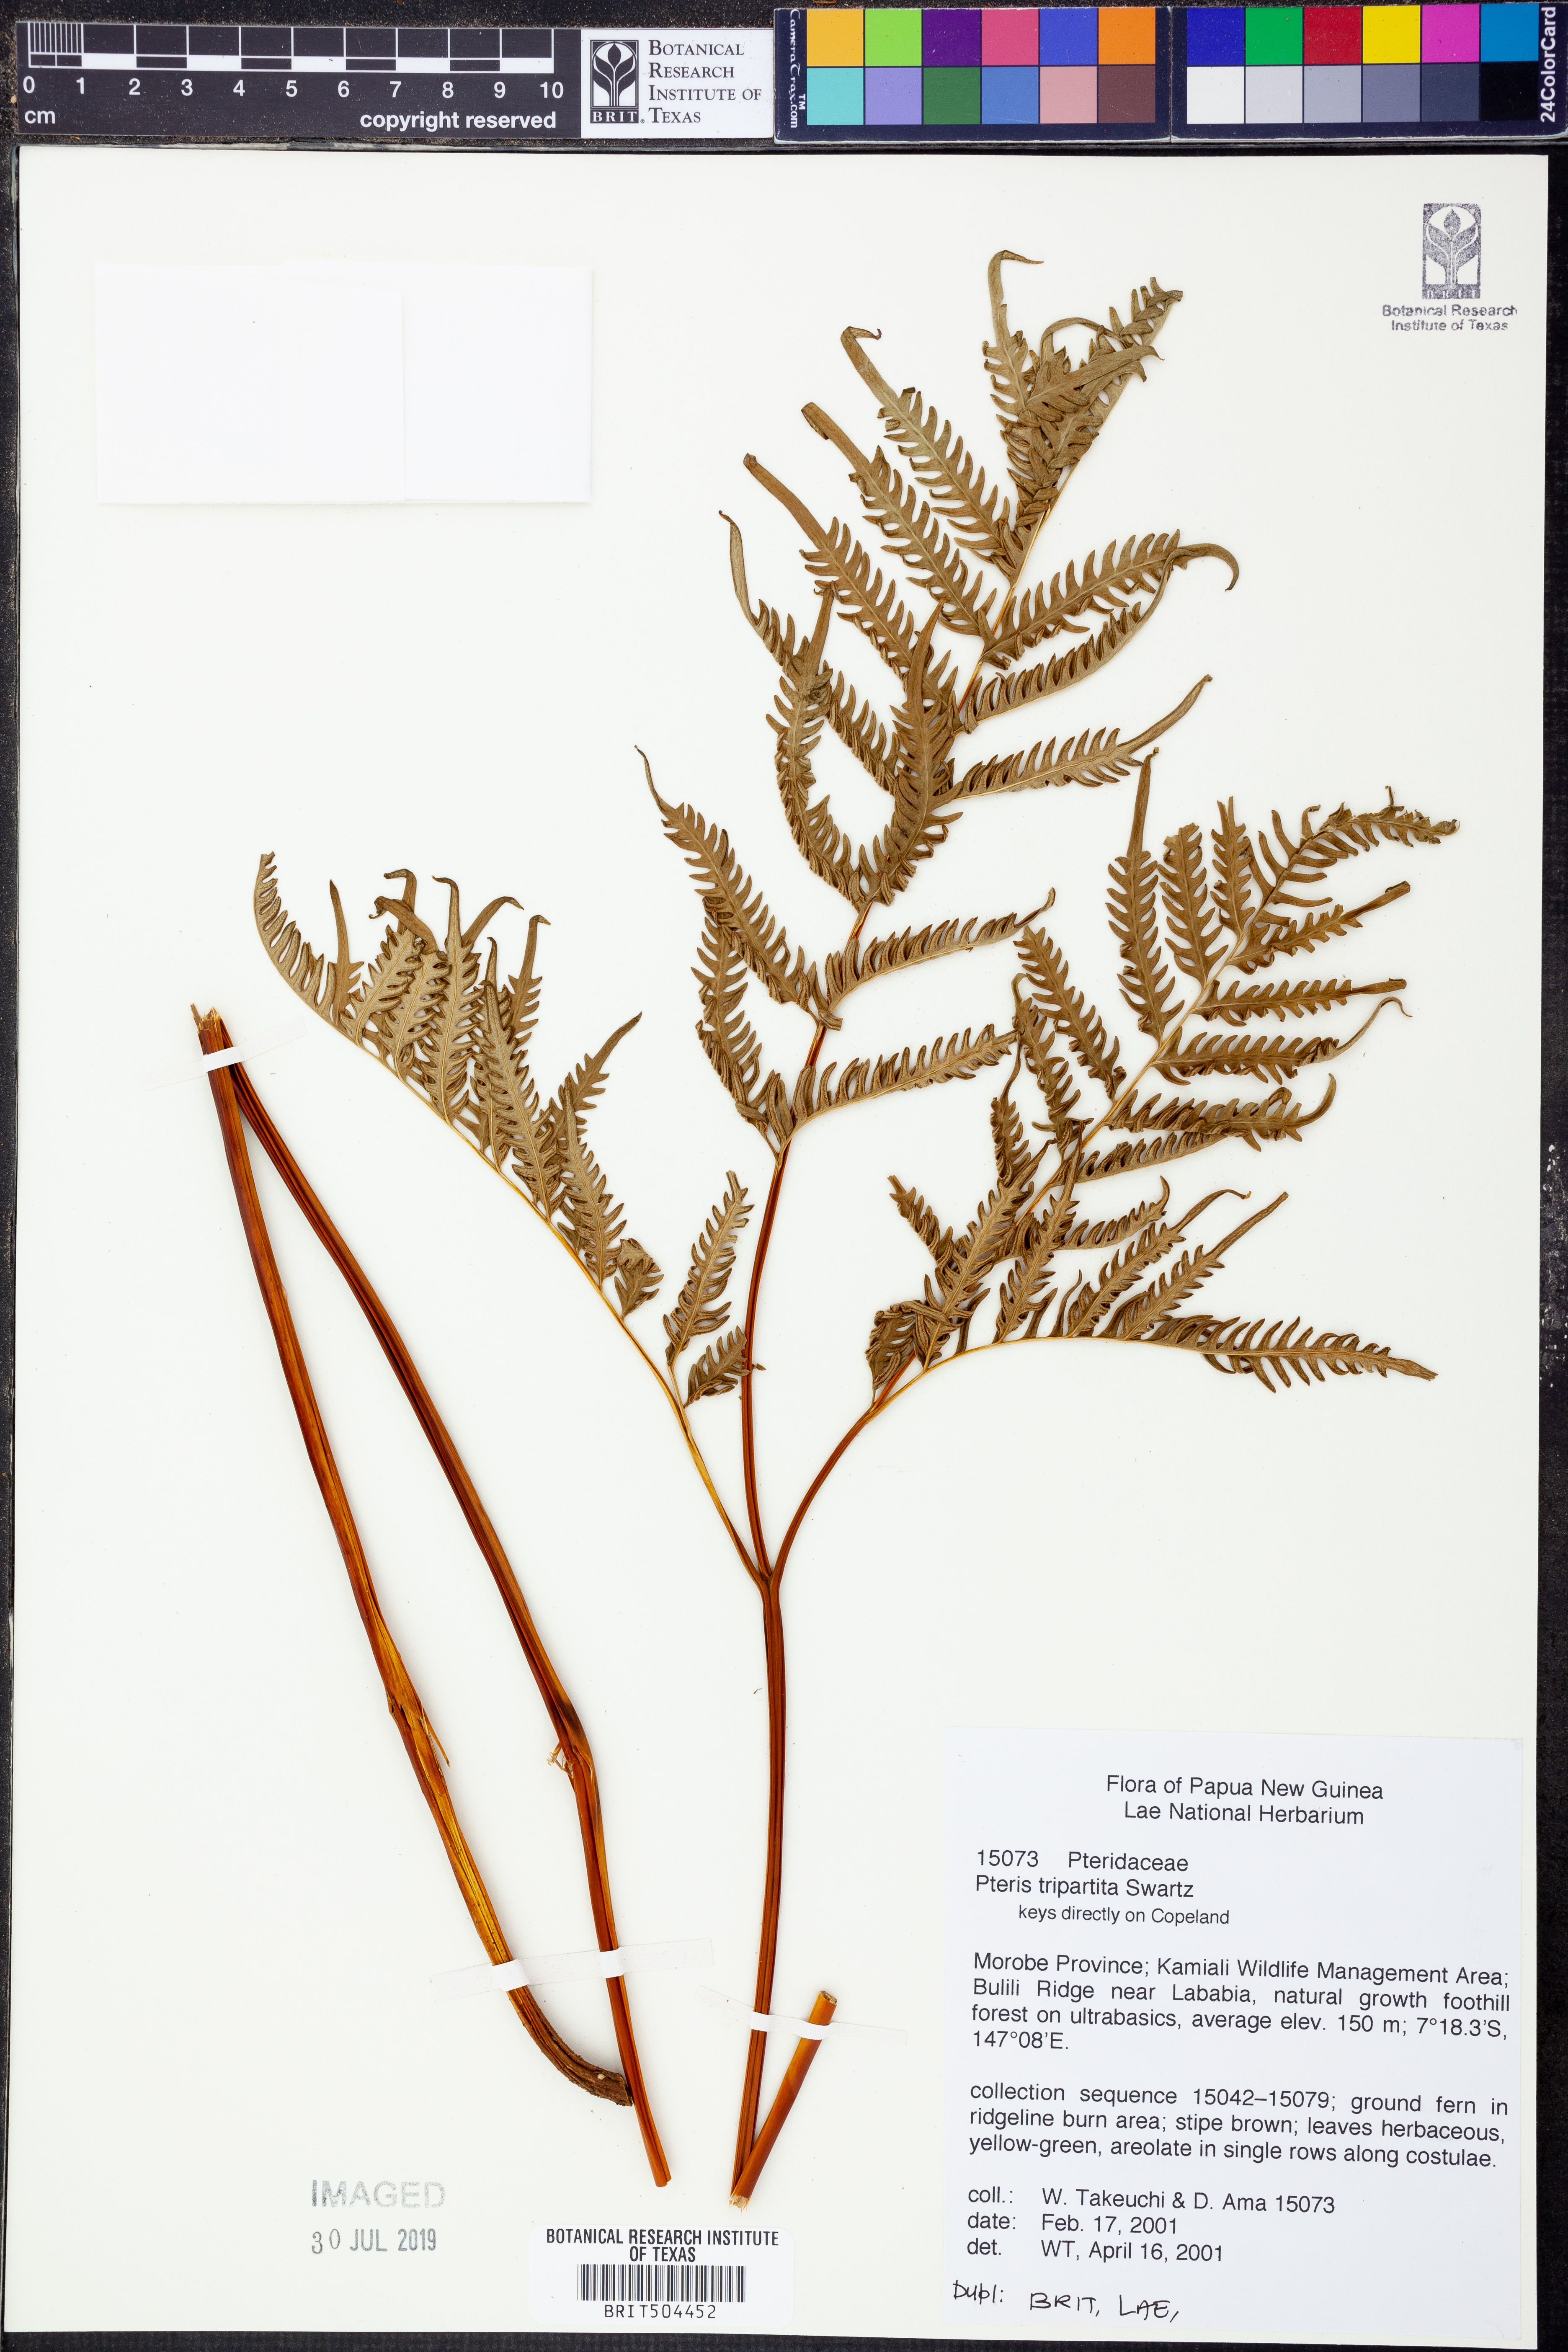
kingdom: Plantae
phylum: Tracheophyta
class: Polypodiopsida
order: Polypodiales
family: Pteridaceae
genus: Pteris
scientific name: Pteris tripartita
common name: Giant brake
